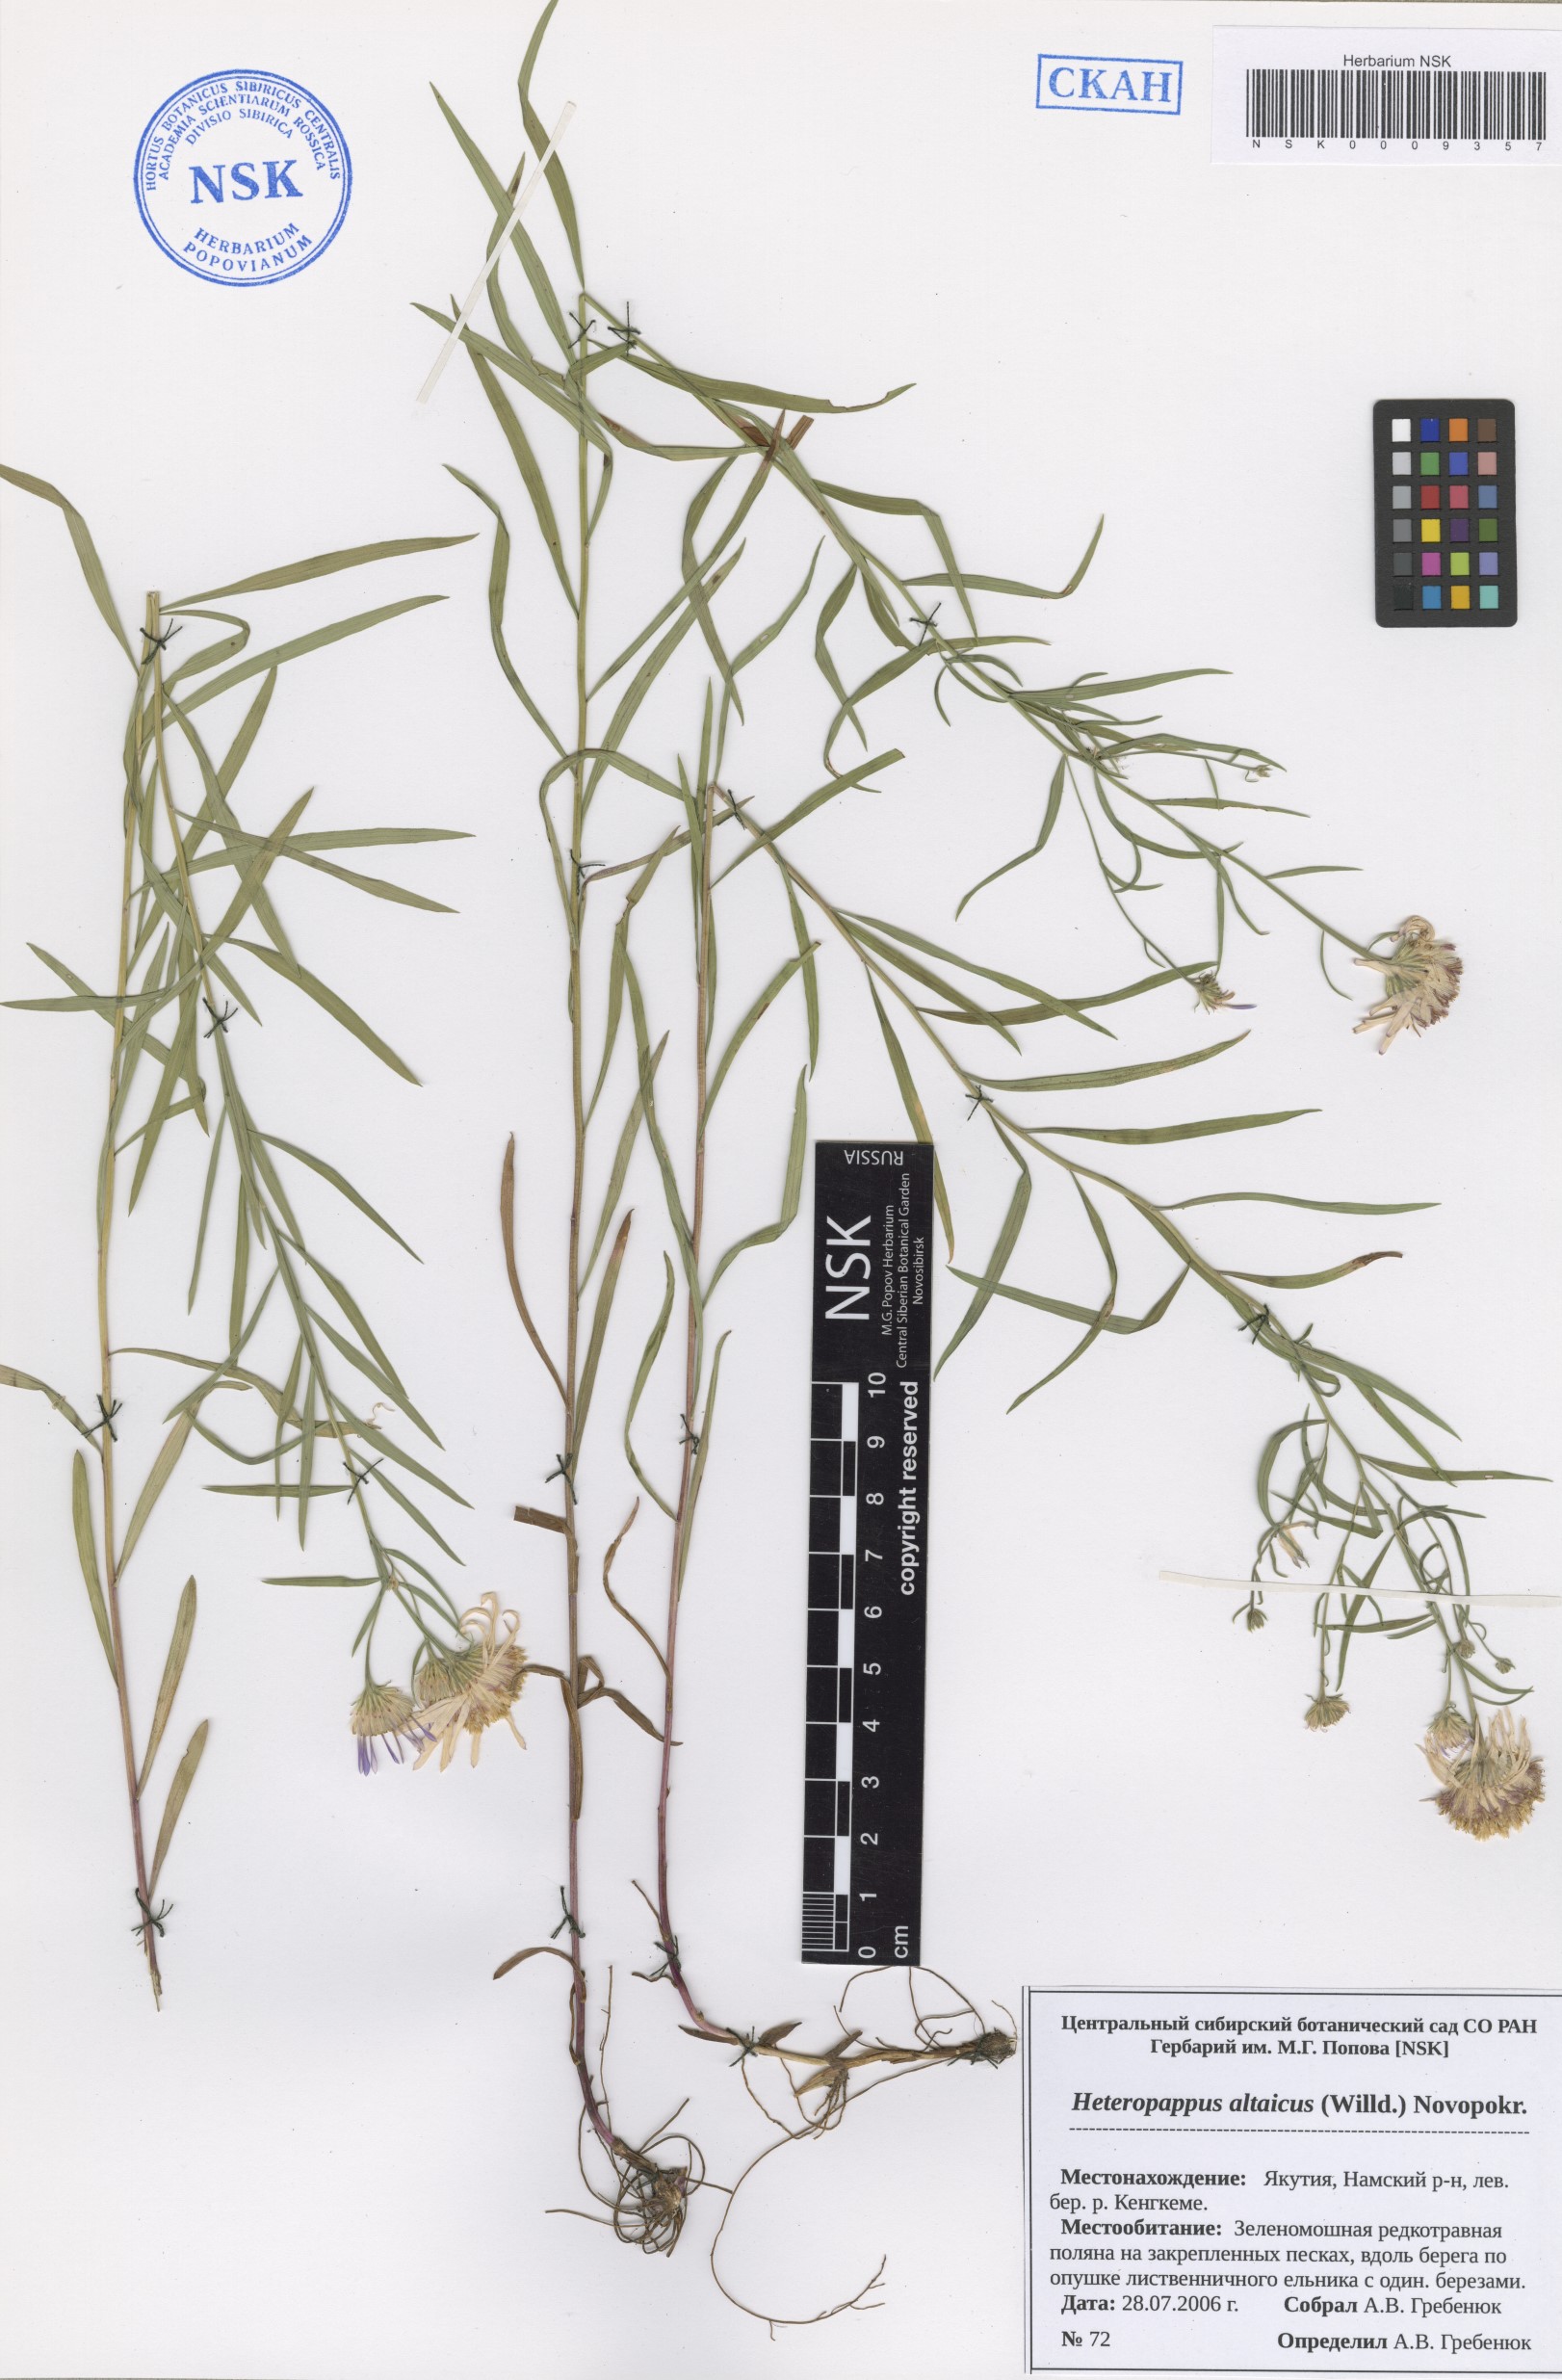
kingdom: Plantae
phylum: Tracheophyta
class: Magnoliopsida
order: Asterales
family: Asteraceae
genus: Heteropappus
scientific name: Heteropappus altaicus
